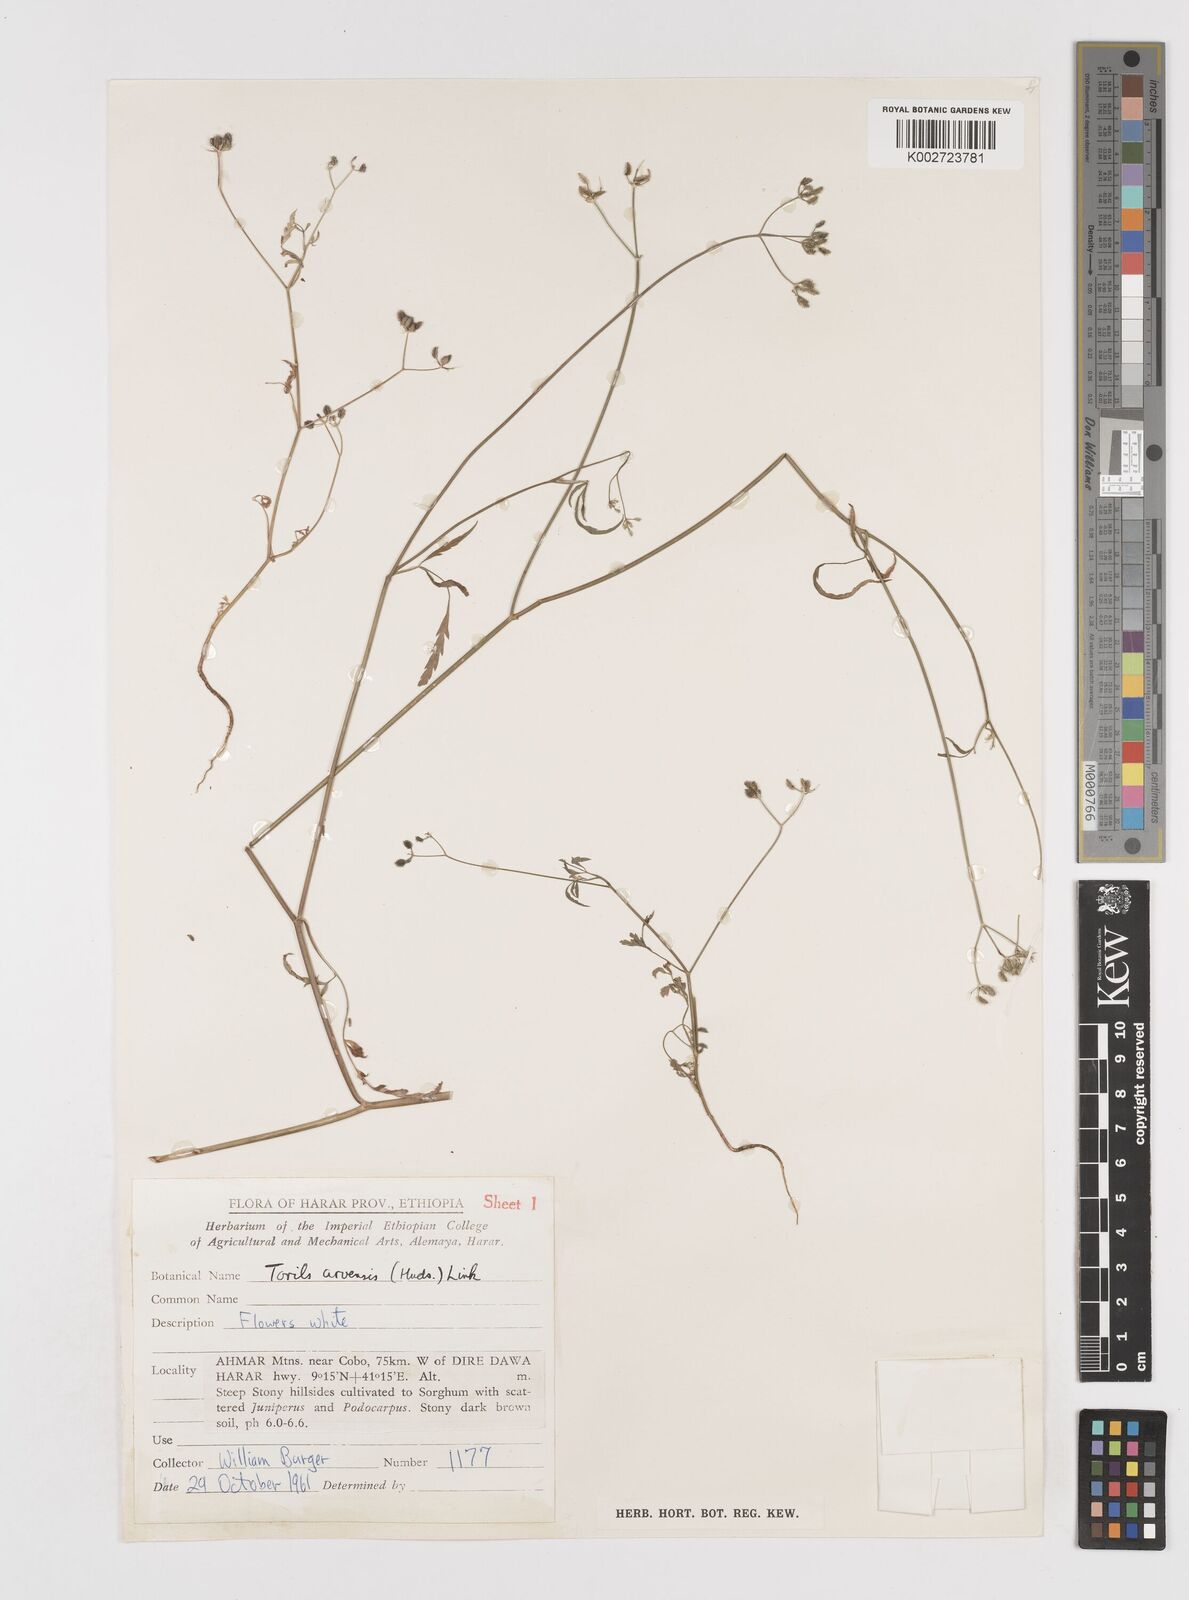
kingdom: Plantae
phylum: Tracheophyta
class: Magnoliopsida
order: Apiales
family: Apiaceae
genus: Torilis
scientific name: Torilis arvensis
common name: Spreading hedge-parsley
